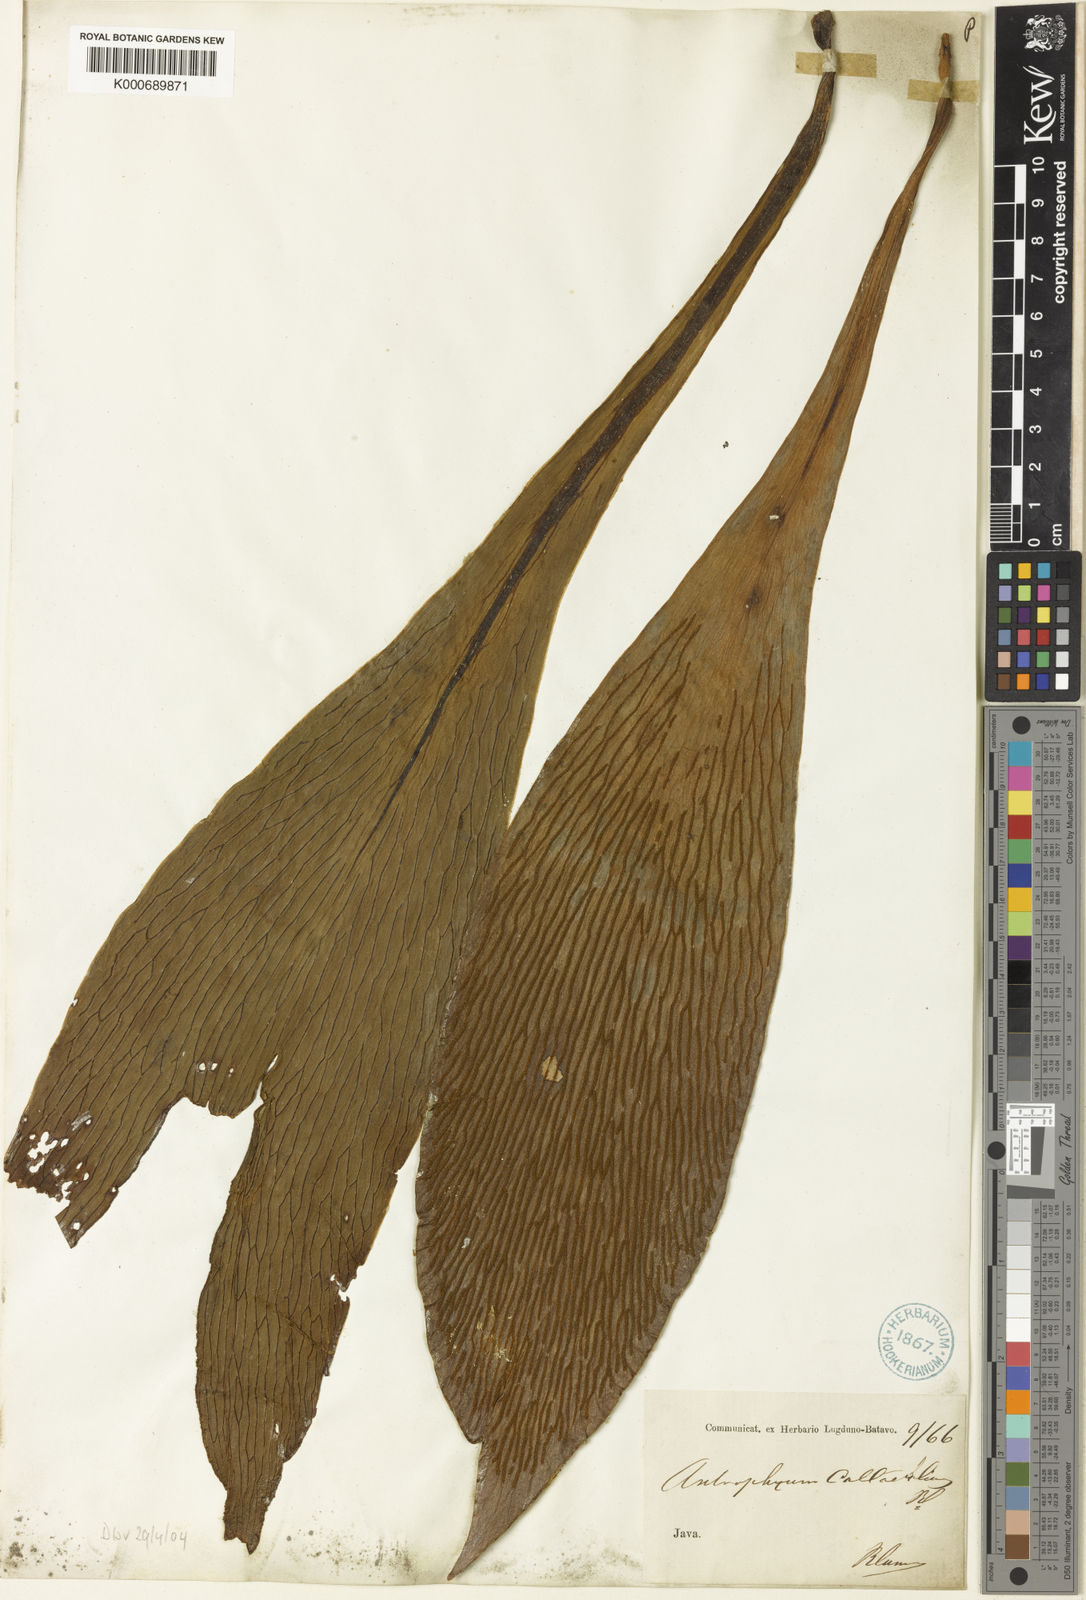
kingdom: Plantae
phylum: Tracheophyta
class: Polypodiopsida
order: Polypodiales
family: Pteridaceae
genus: Antrophyum
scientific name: Antrophyum callifolium
